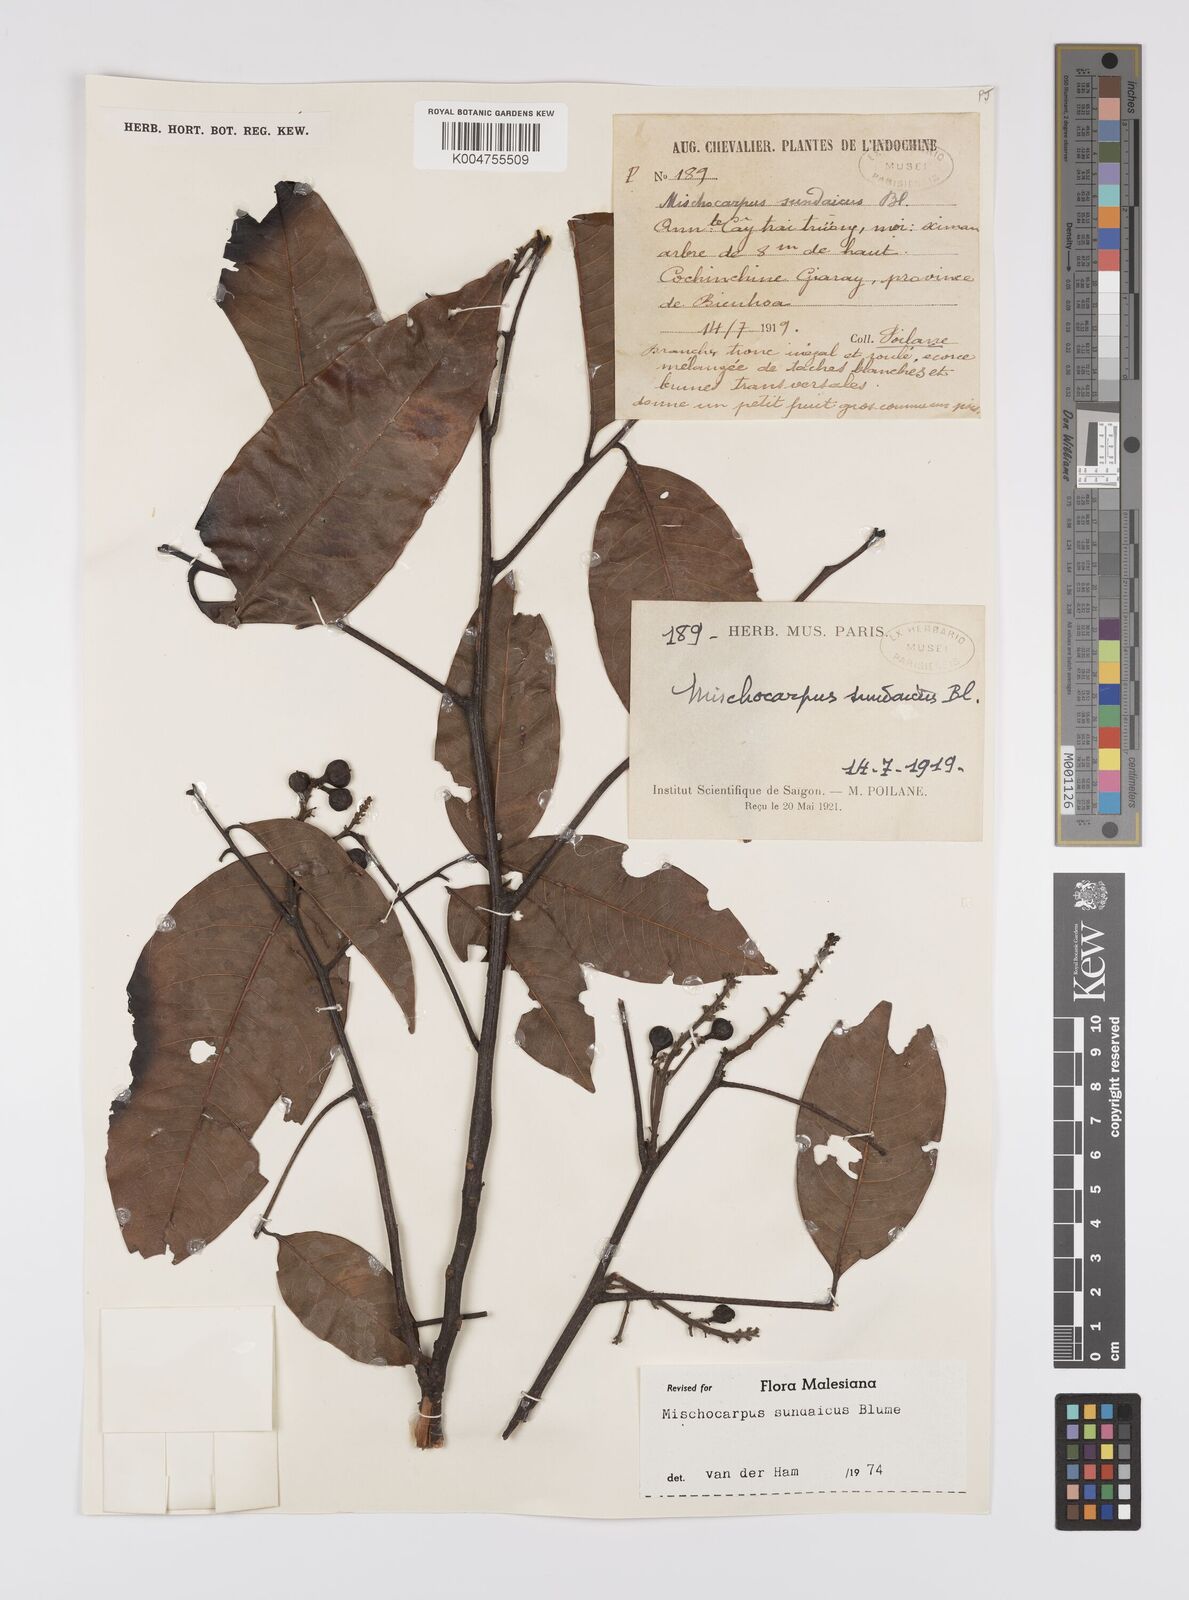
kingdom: Plantae
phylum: Tracheophyta
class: Magnoliopsida
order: Sapindales
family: Sapindaceae
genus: Mischocarpus
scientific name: Mischocarpus sundaicus
